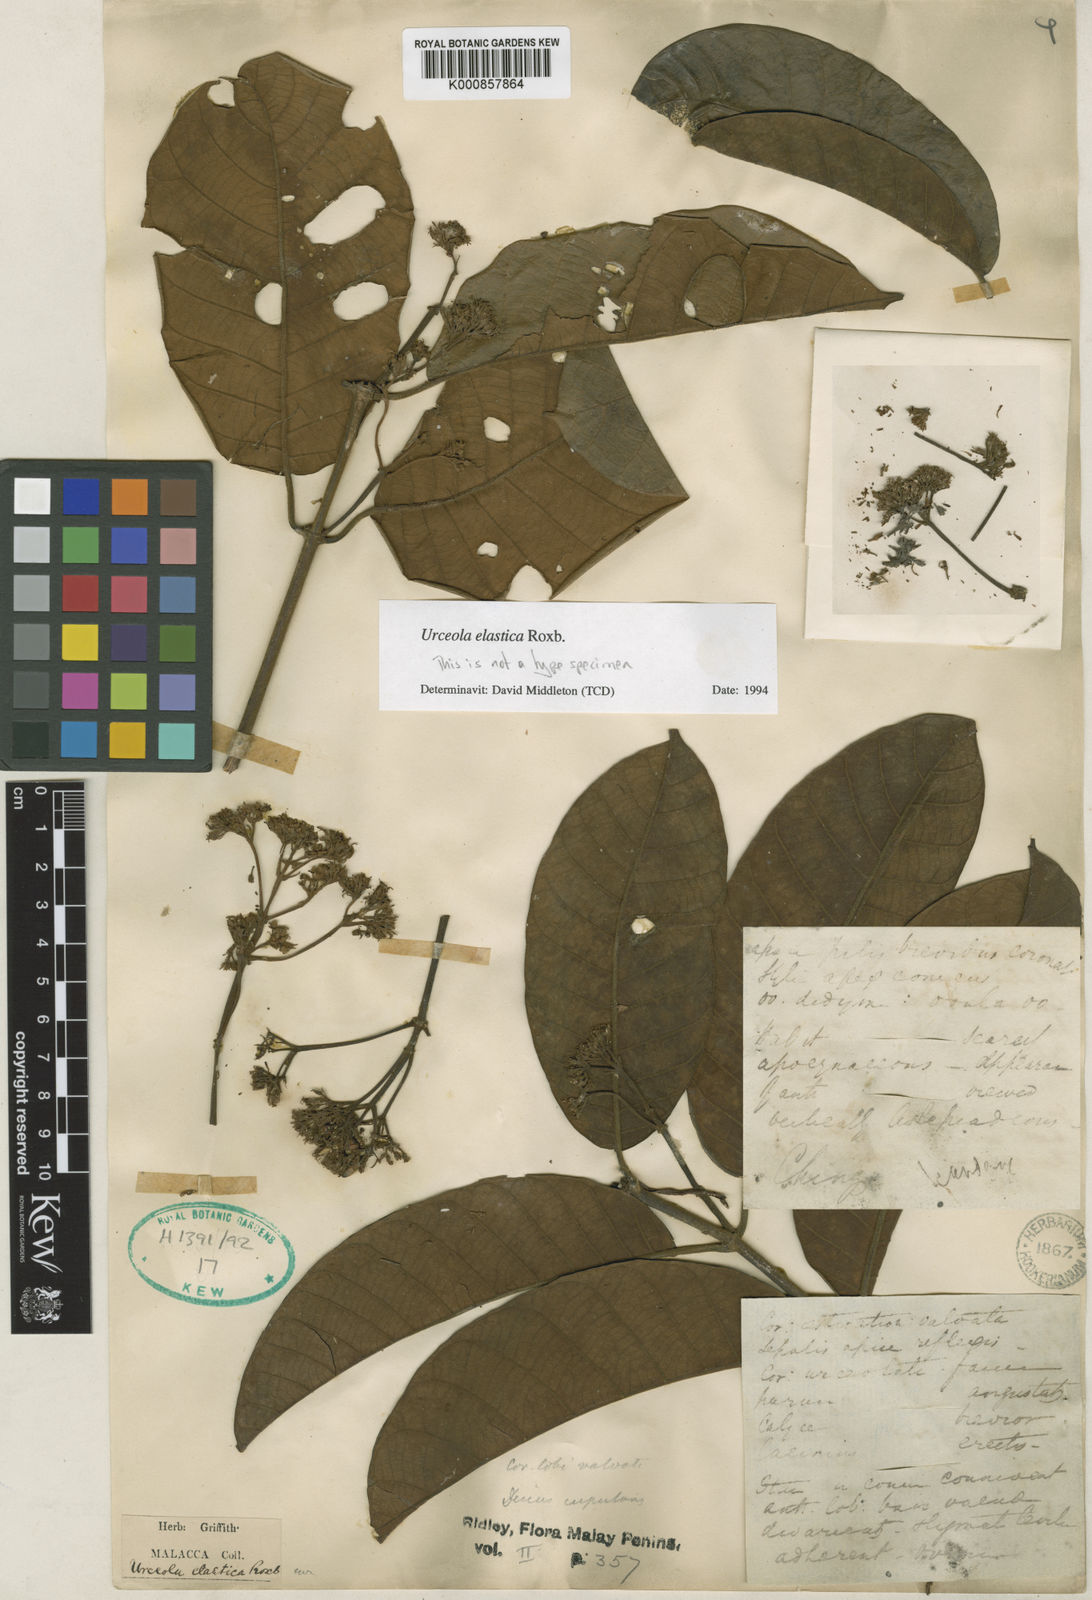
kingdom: Plantae
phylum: Tracheophyta
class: Magnoliopsida
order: Gentianales
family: Apocynaceae
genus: Urceola
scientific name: Urceola elastica
